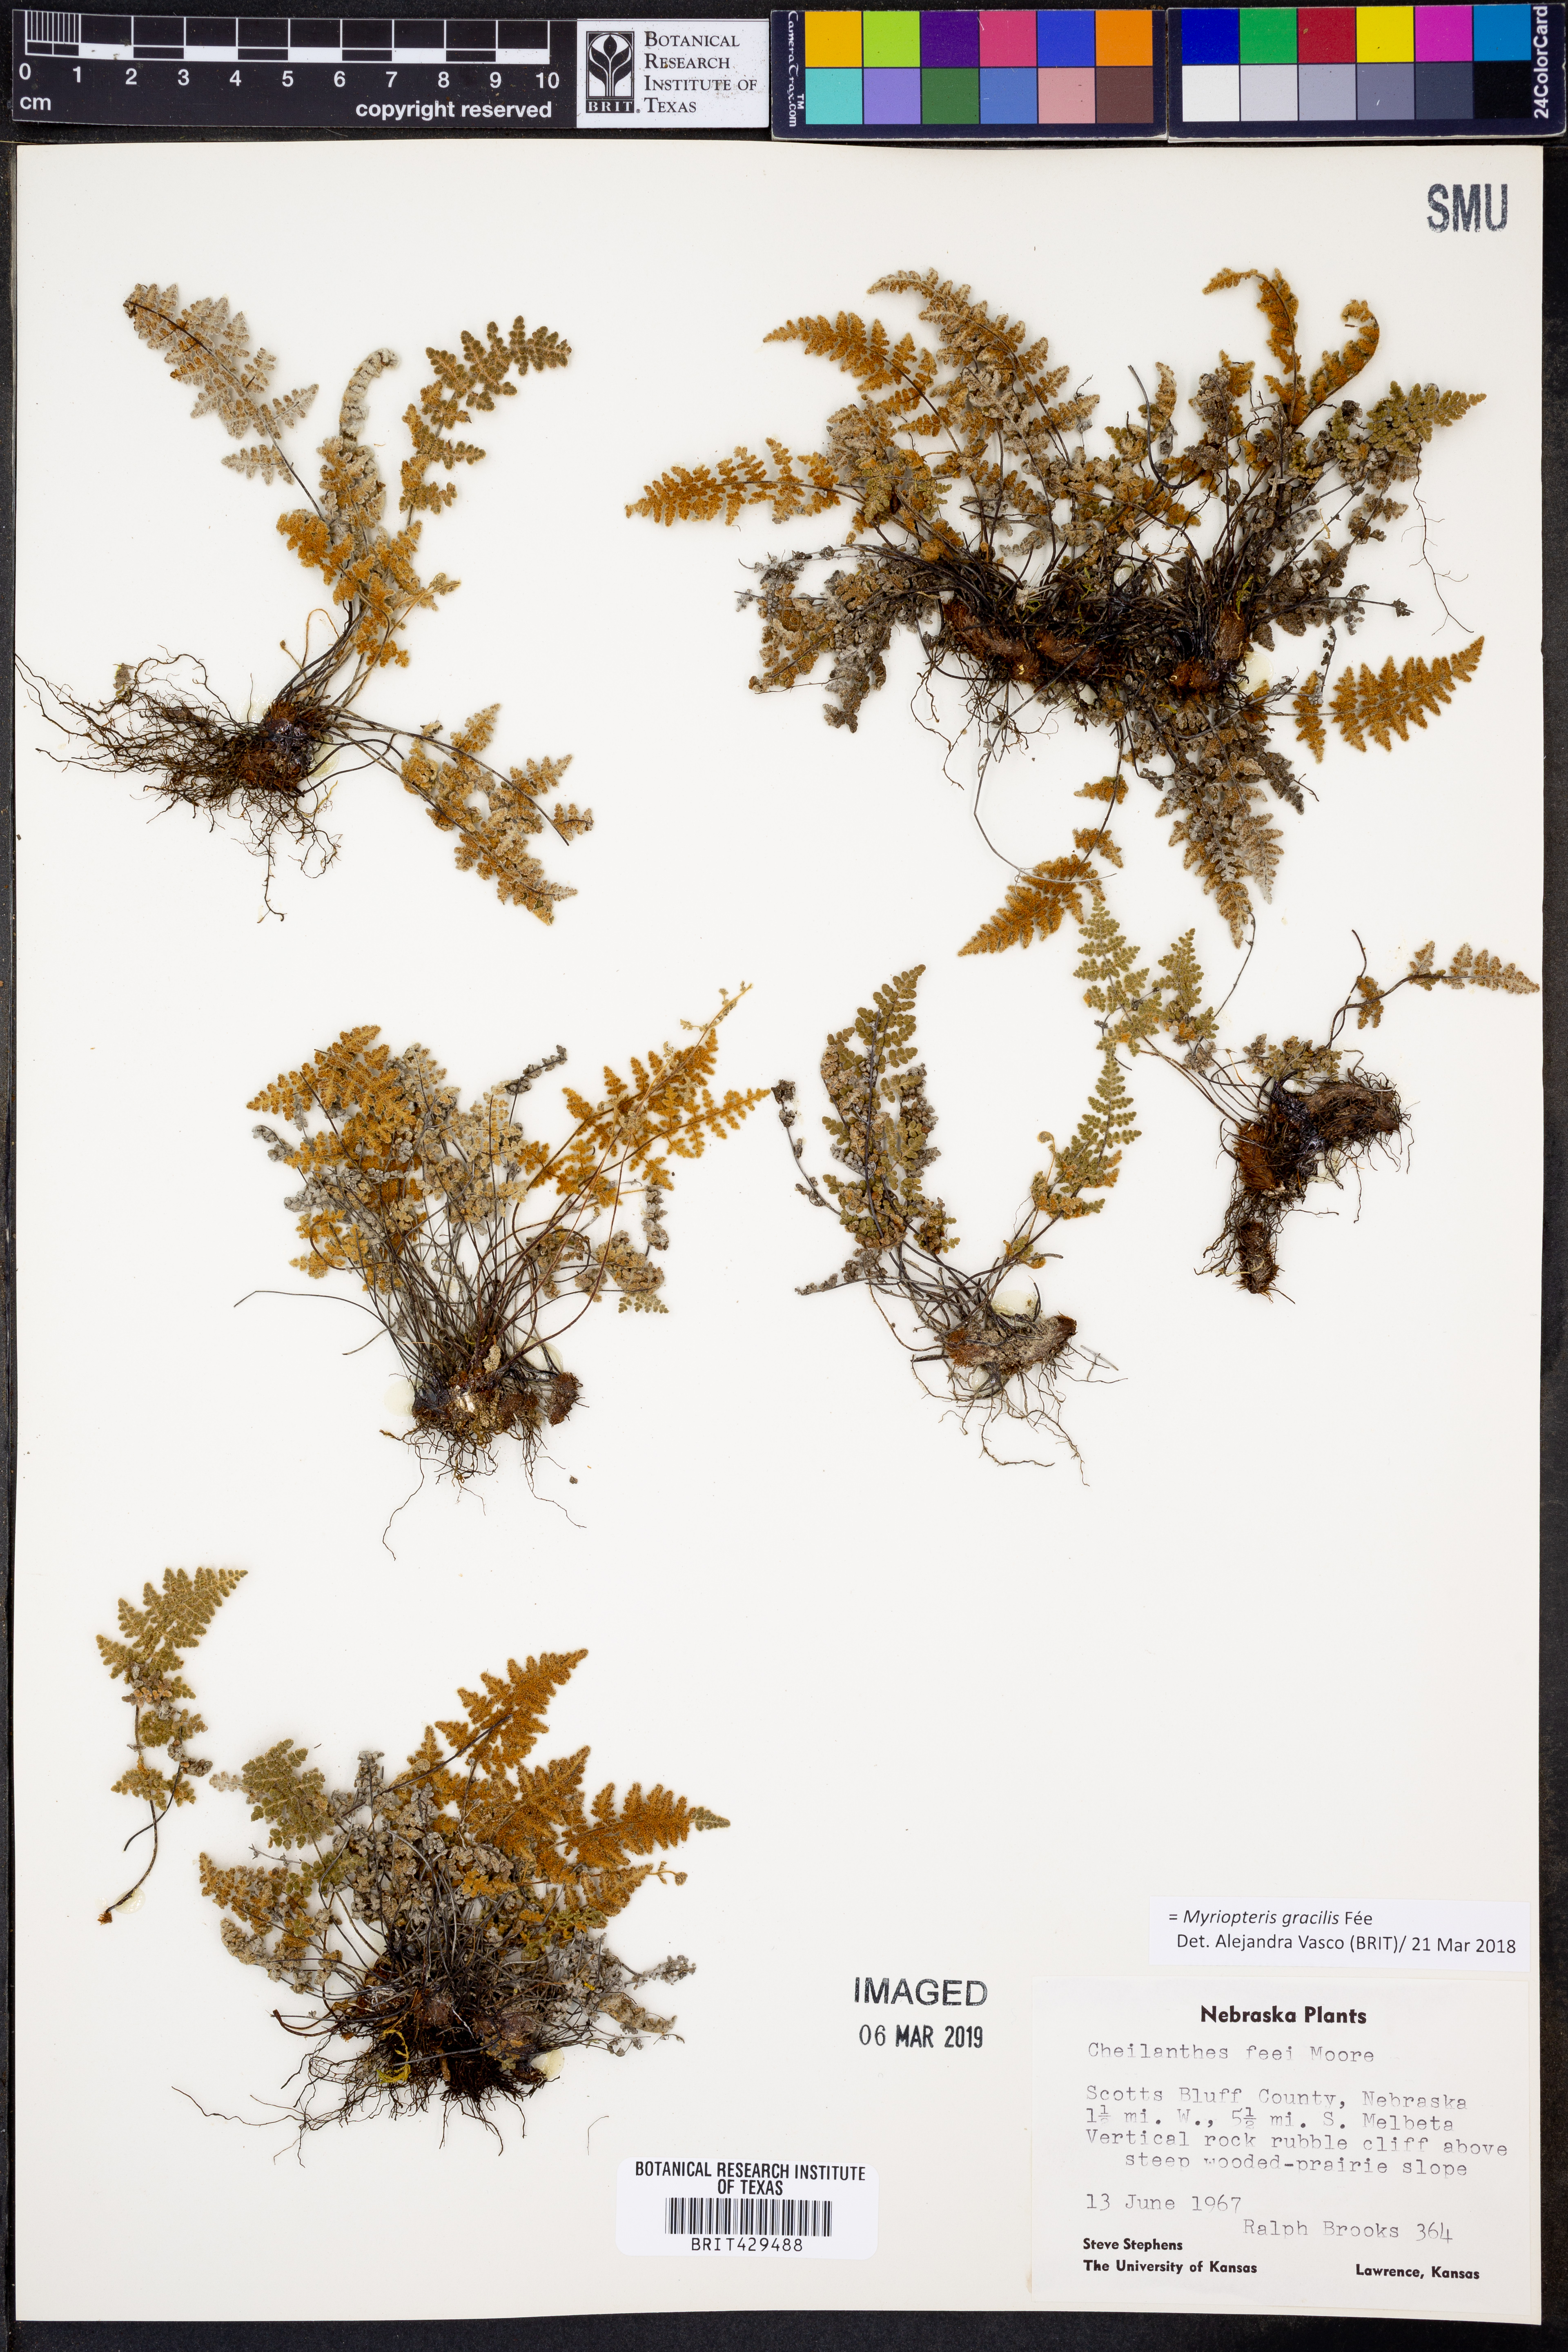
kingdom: Plantae
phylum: Tracheophyta
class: Polypodiopsida
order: Polypodiales
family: Pteridaceae
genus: Myriopteris
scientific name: Myriopteris gracilis
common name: Fee's lip fern
